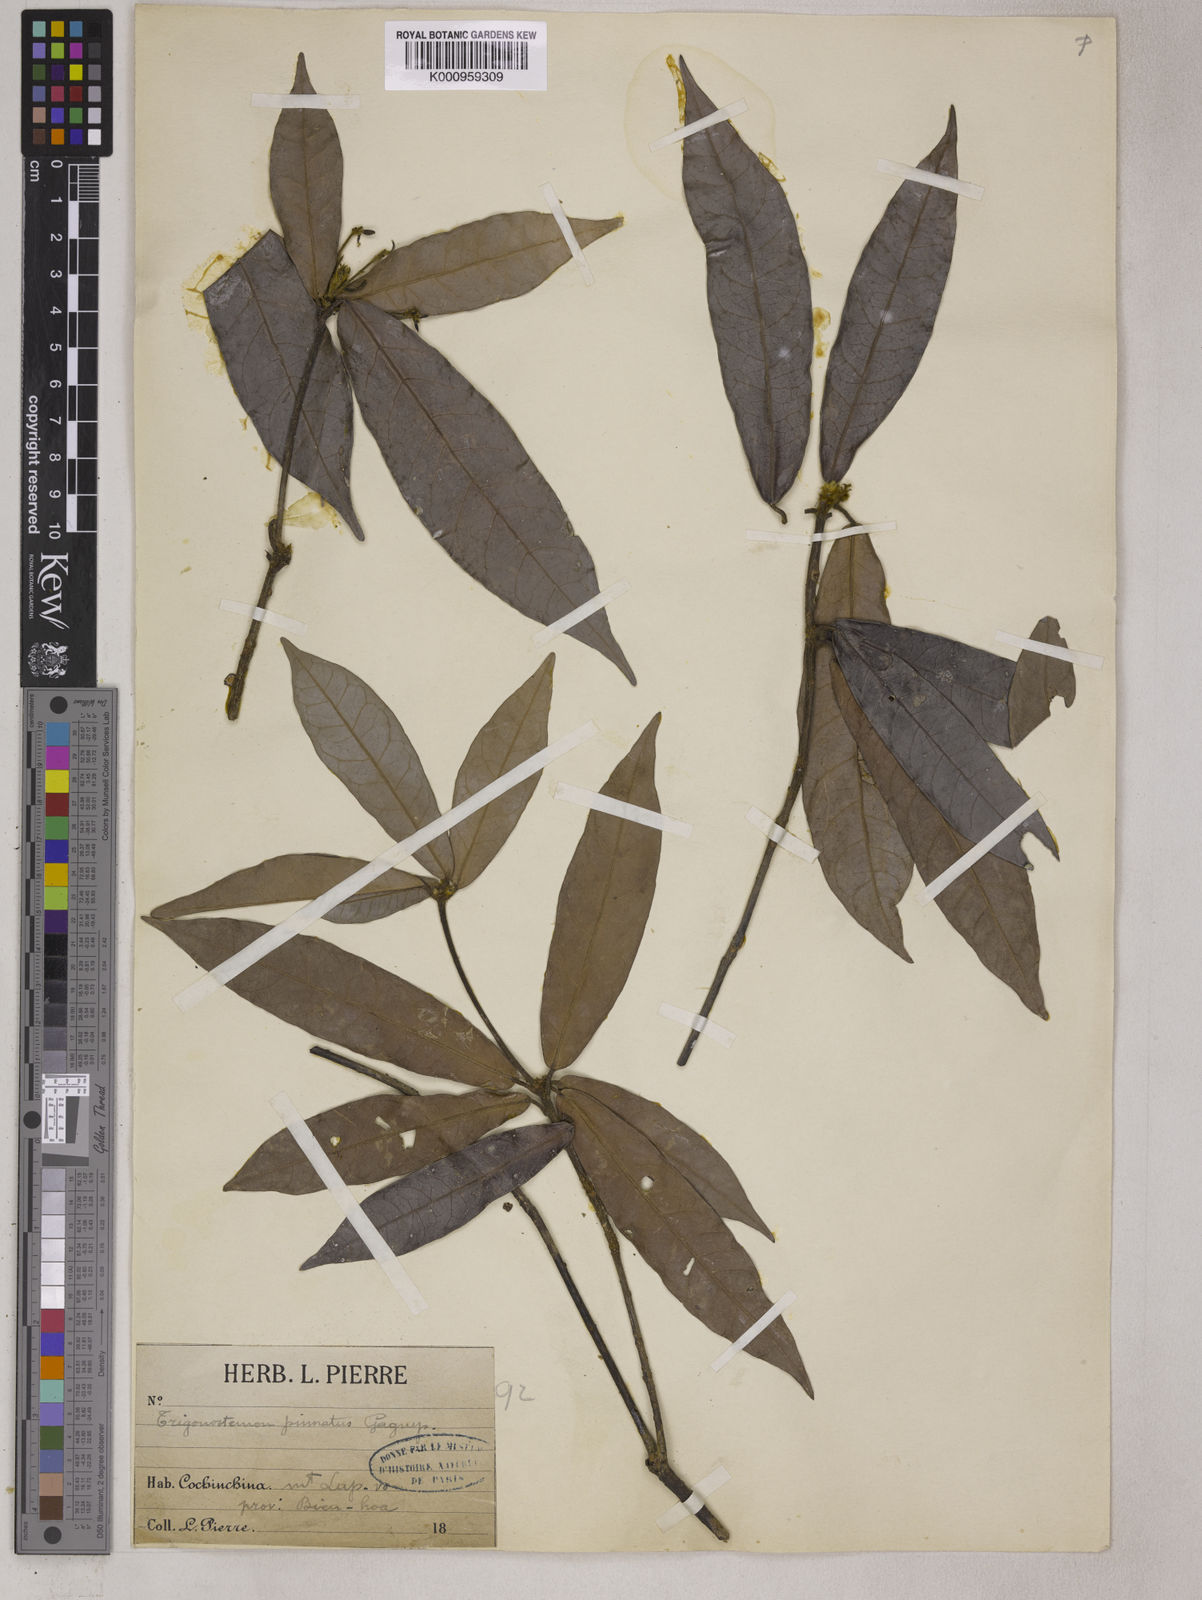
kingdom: Plantae
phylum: Tracheophyta
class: Magnoliopsida
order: Malpighiales
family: Euphorbiaceae
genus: Trigonostemon
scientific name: Trigonostemon murtonii
